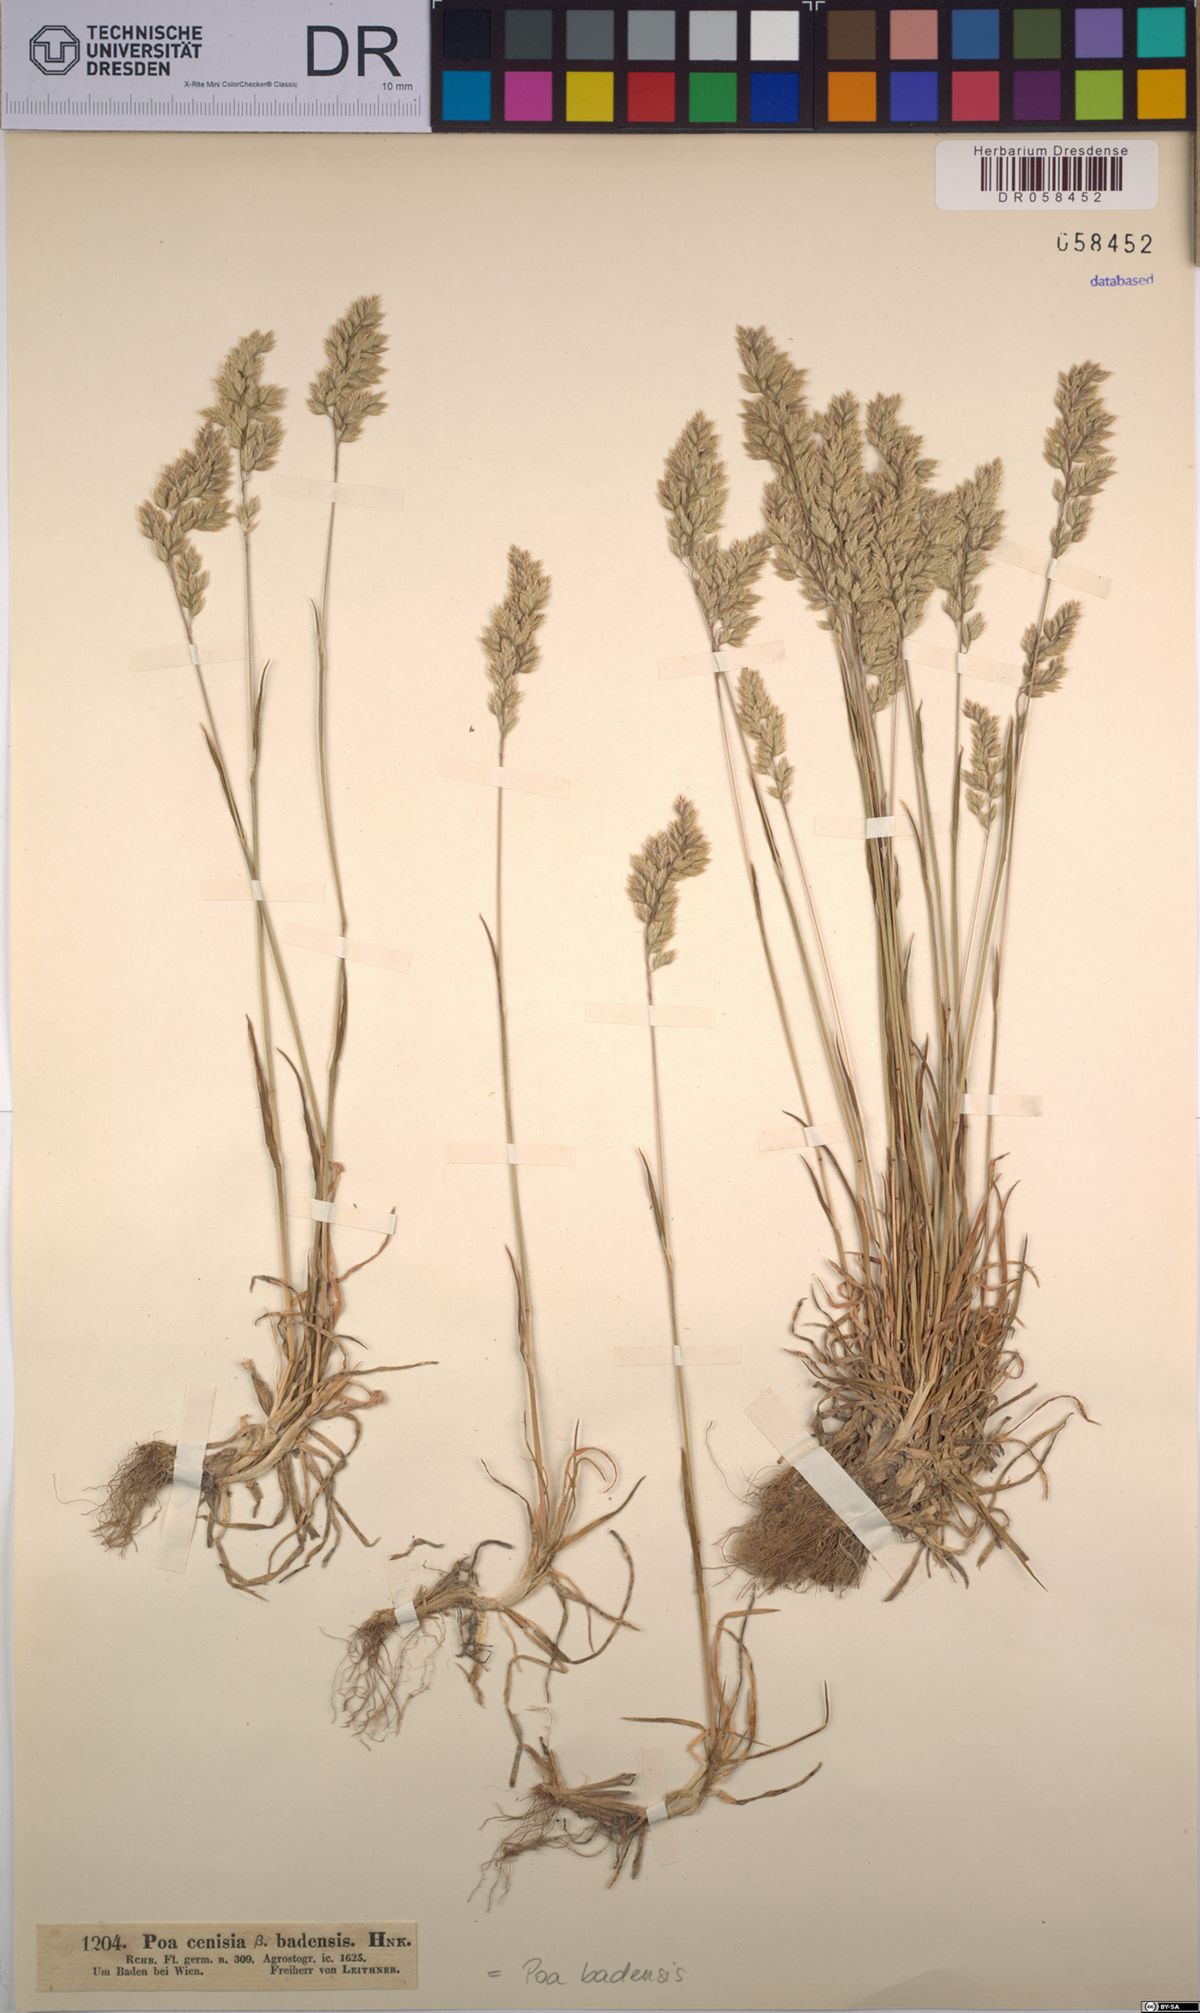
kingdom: Plantae
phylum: Tracheophyta
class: Liliopsida
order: Poales
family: Poaceae
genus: Poa
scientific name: Poa badensis
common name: Baden's bluegrass
